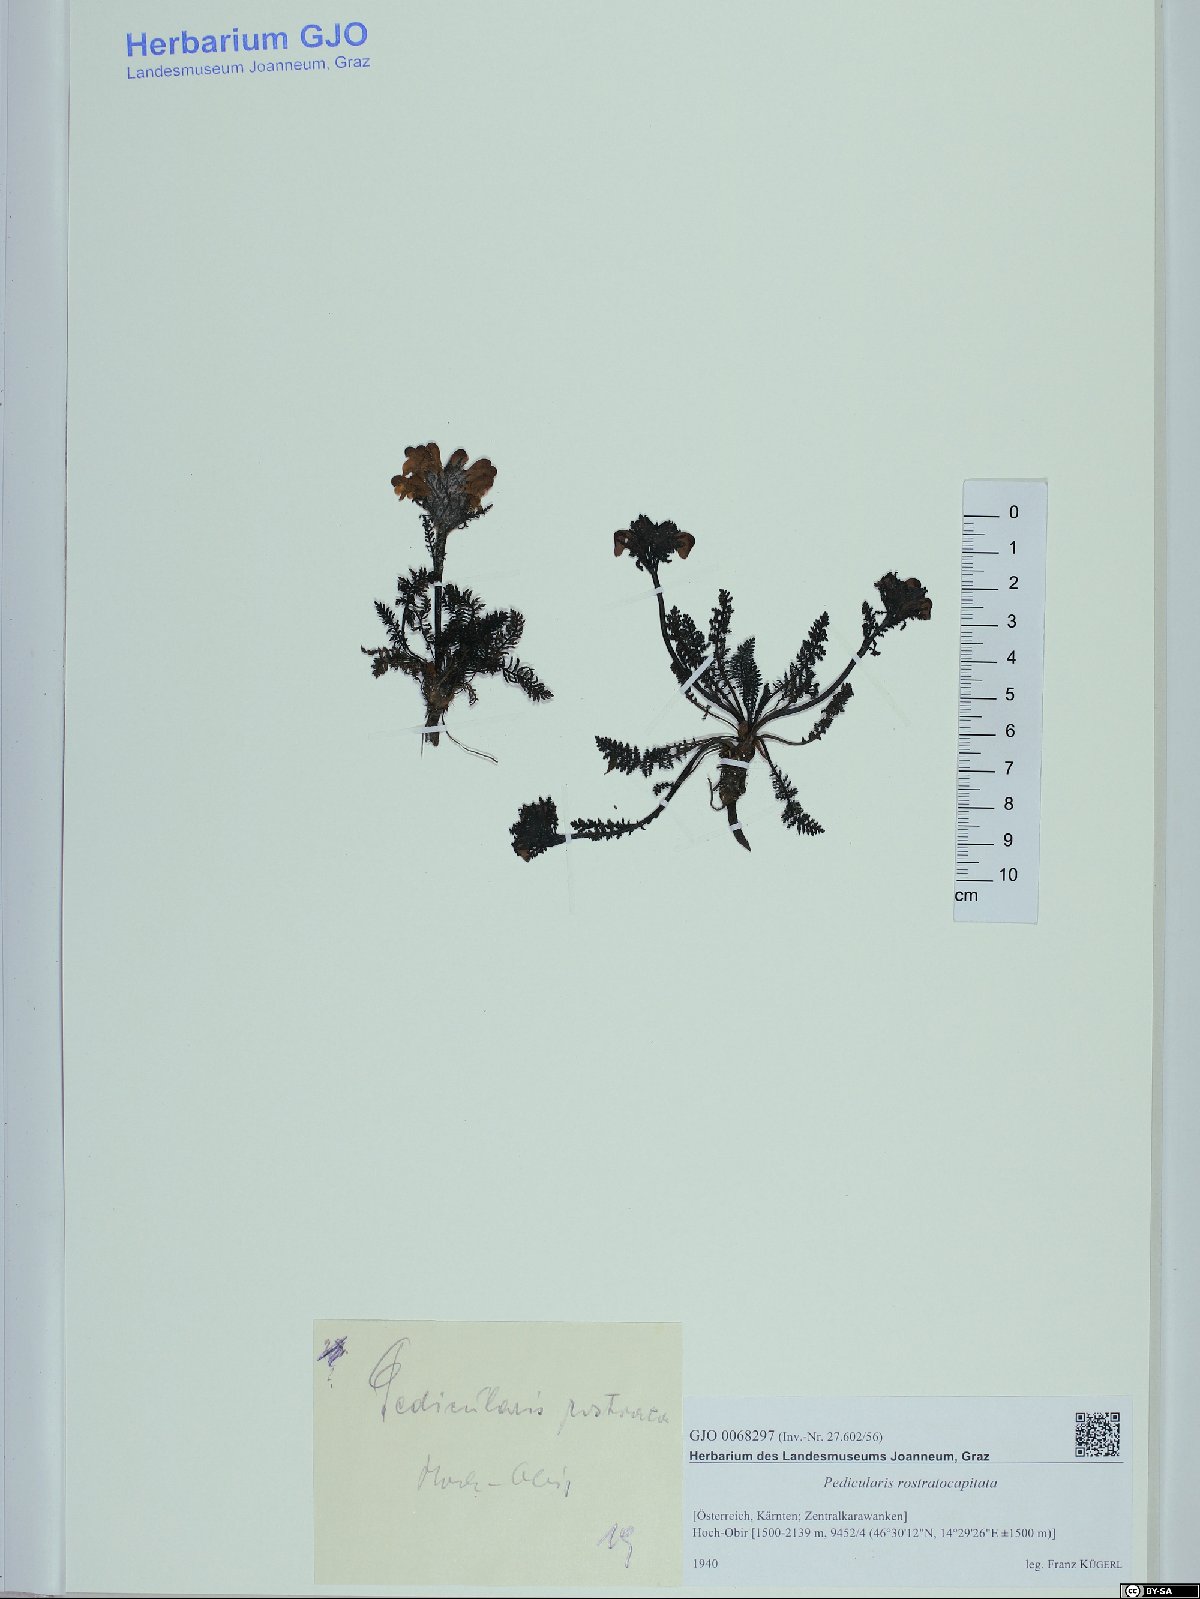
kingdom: Plantae
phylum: Tracheophyta
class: Magnoliopsida
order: Lamiales
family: Orobanchaceae
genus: Pedicularis
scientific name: Pedicularis rostratocapitata
